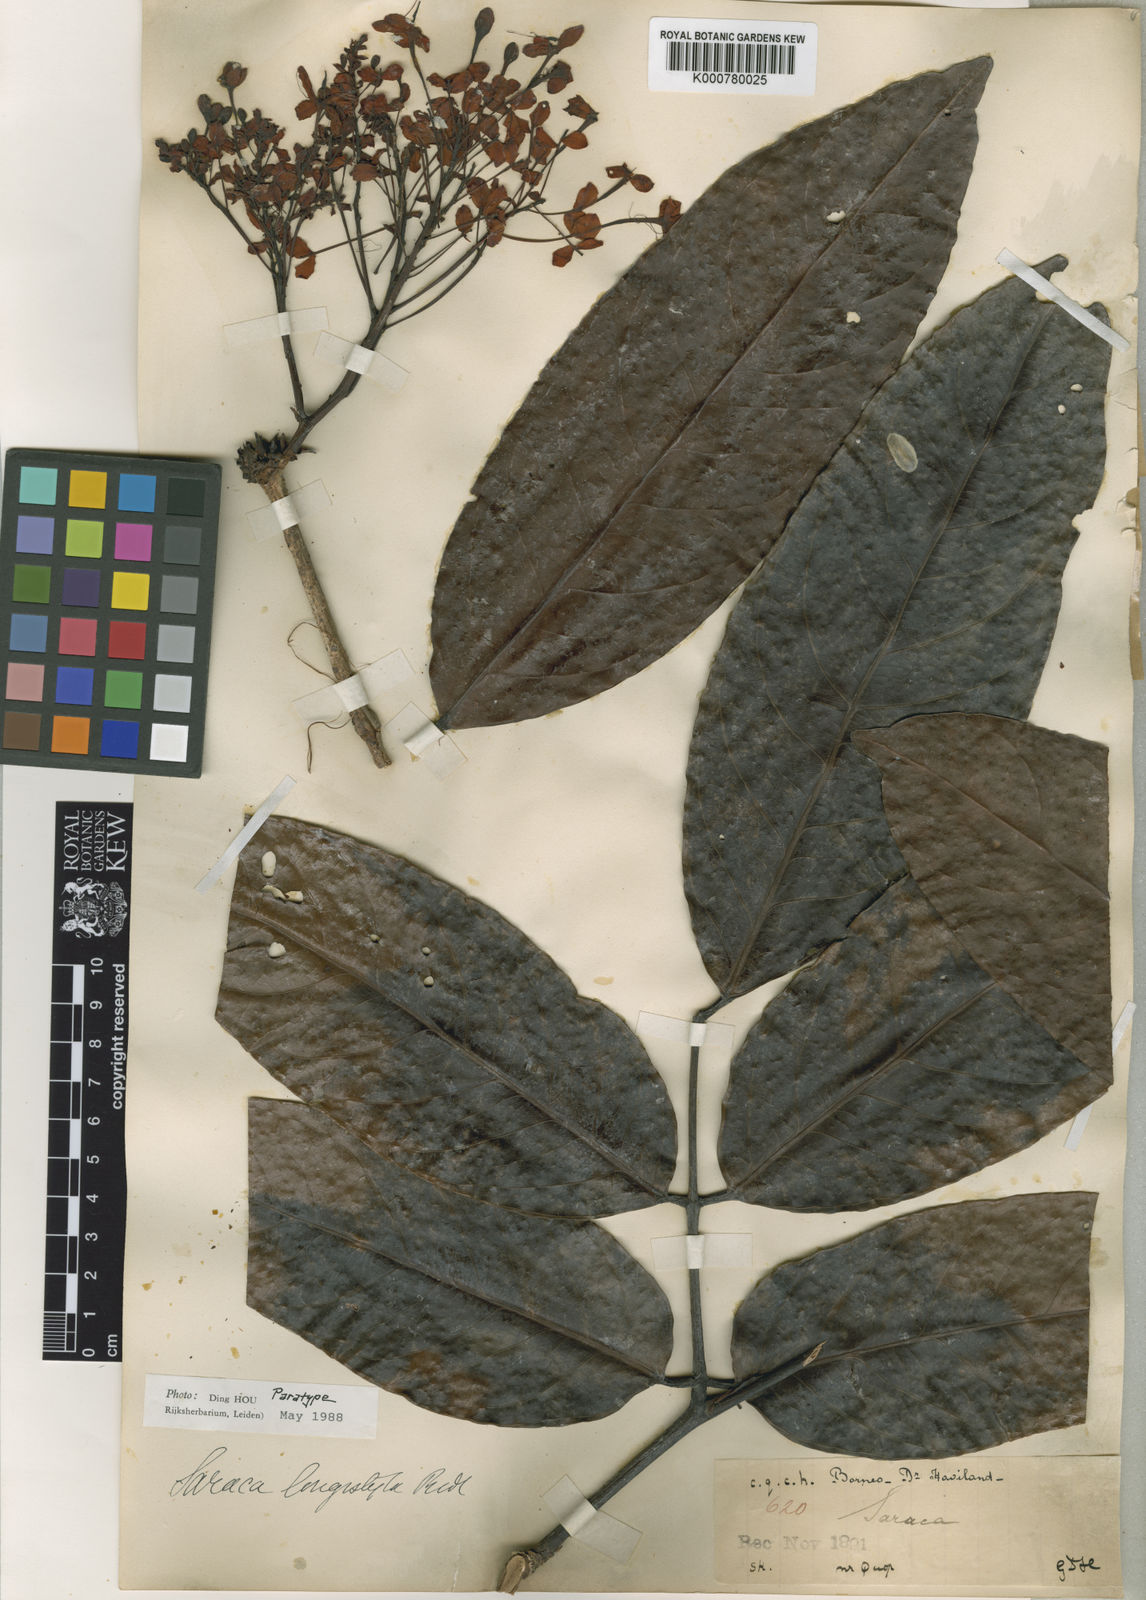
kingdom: Plantae
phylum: Tracheophyta
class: Magnoliopsida
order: Fabales
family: Fabaceae
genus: Saraca
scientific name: Saraca declinata
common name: Red saraca
